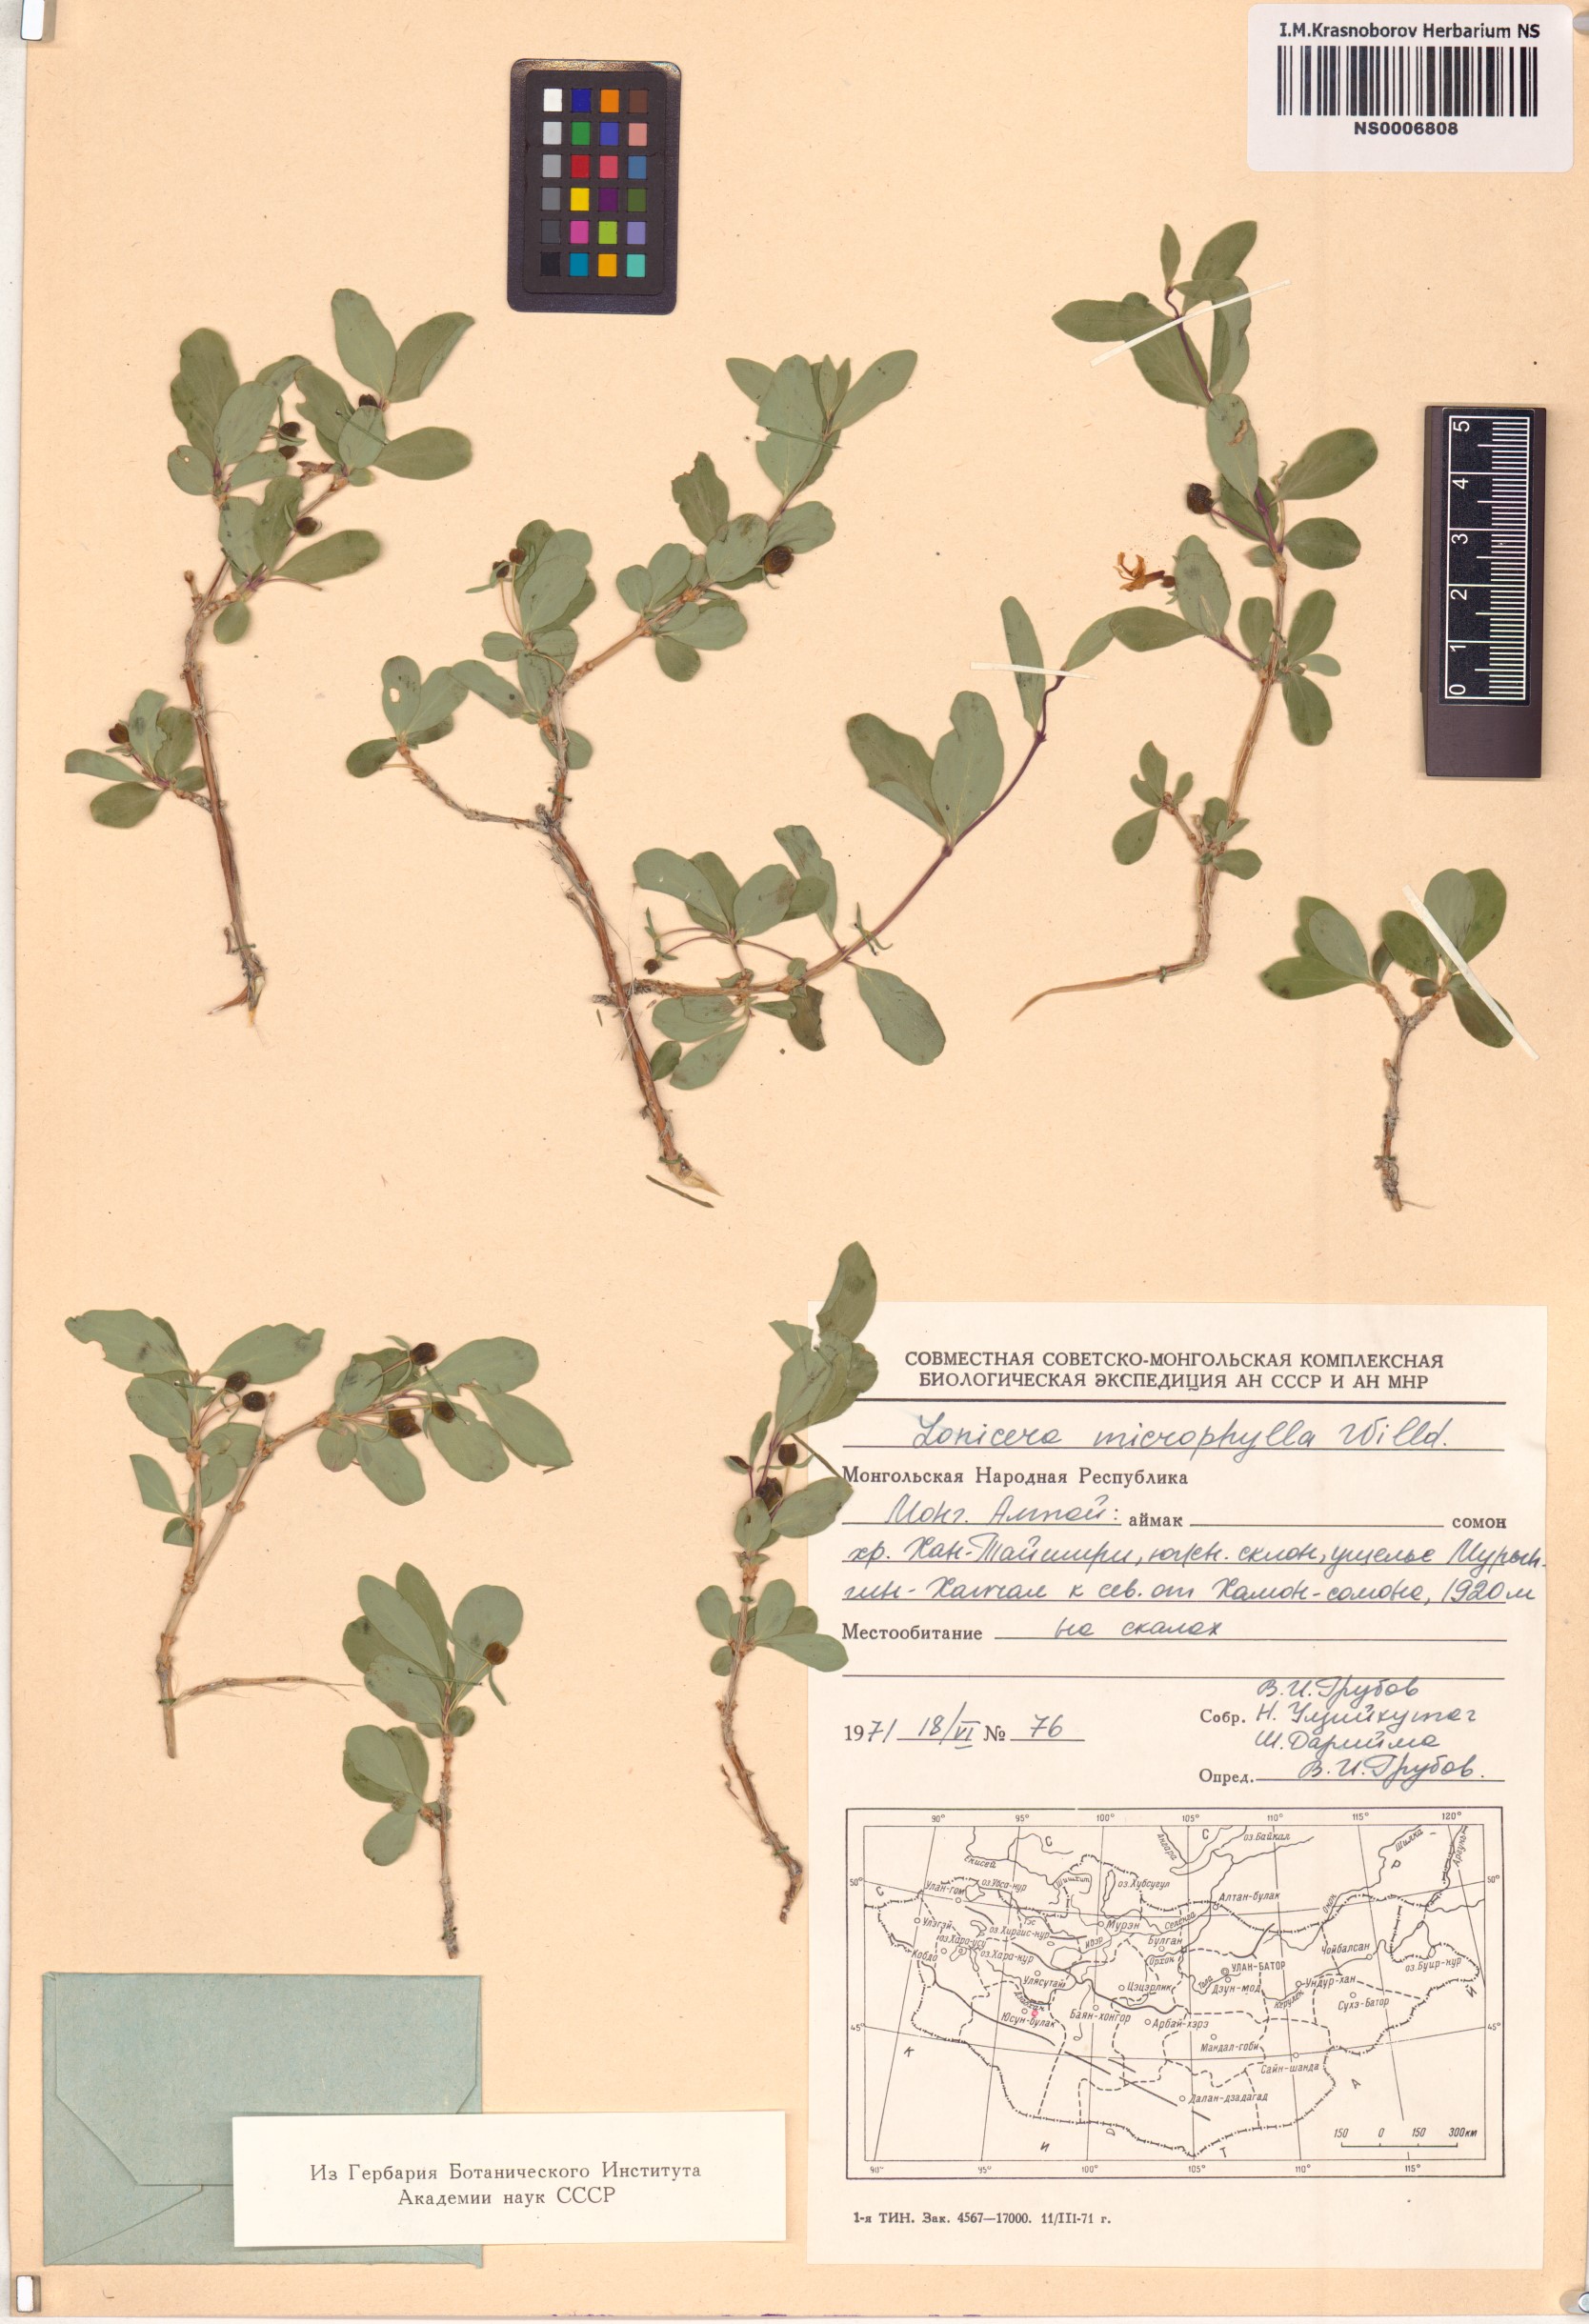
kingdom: Plantae
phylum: Tracheophyta
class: Magnoliopsida
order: Dipsacales
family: Caprifoliaceae
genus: Lonicera
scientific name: Lonicera microphylla
